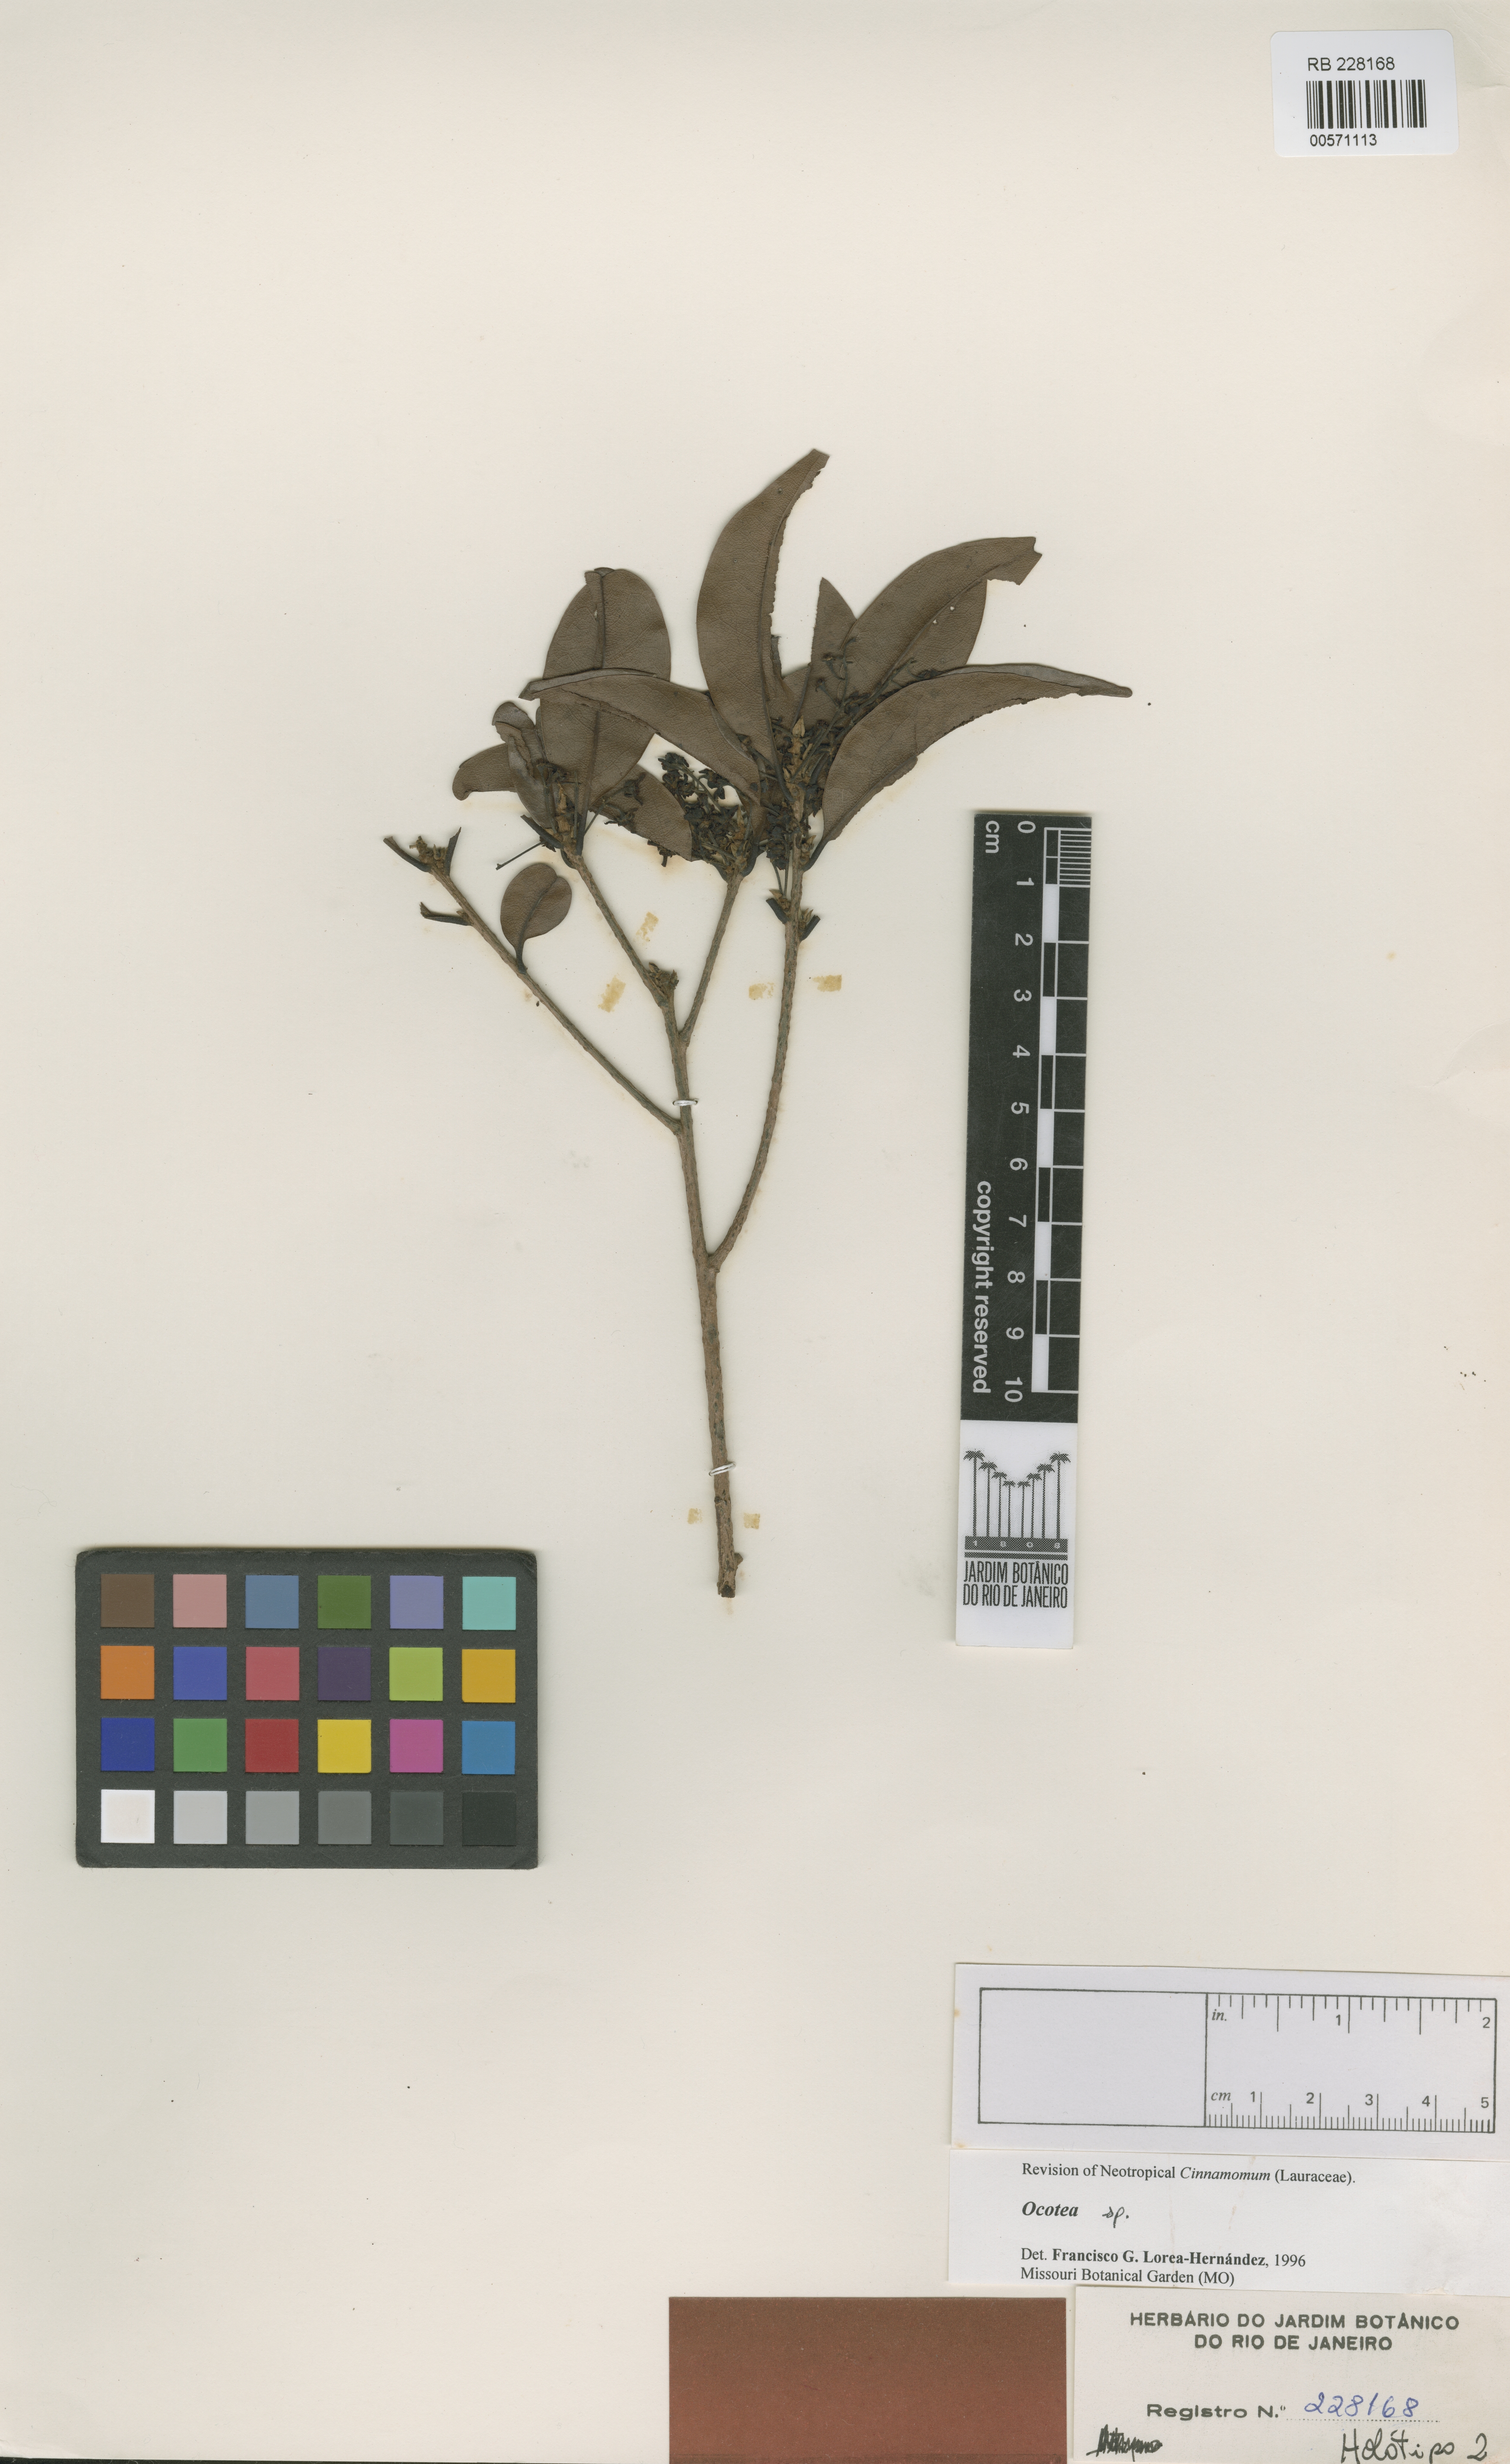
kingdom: Plantae
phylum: Tracheophyta
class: Magnoliopsida
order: Laurales
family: Lauraceae
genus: Mespilodaphne
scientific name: Mespilodaphne fasciculata
